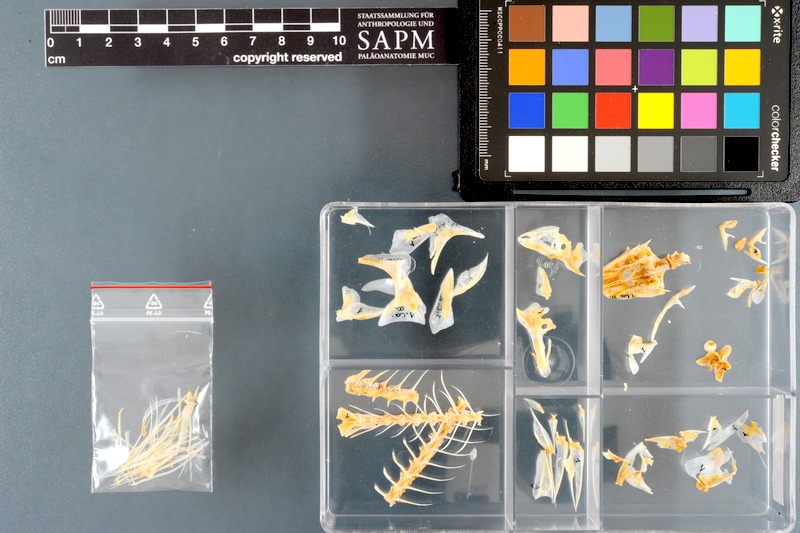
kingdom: Animalia
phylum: Chordata
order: Perciformes
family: Caesionidae
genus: Caesio
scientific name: Caesio caerulaurea
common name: Blue and gold fusilier
